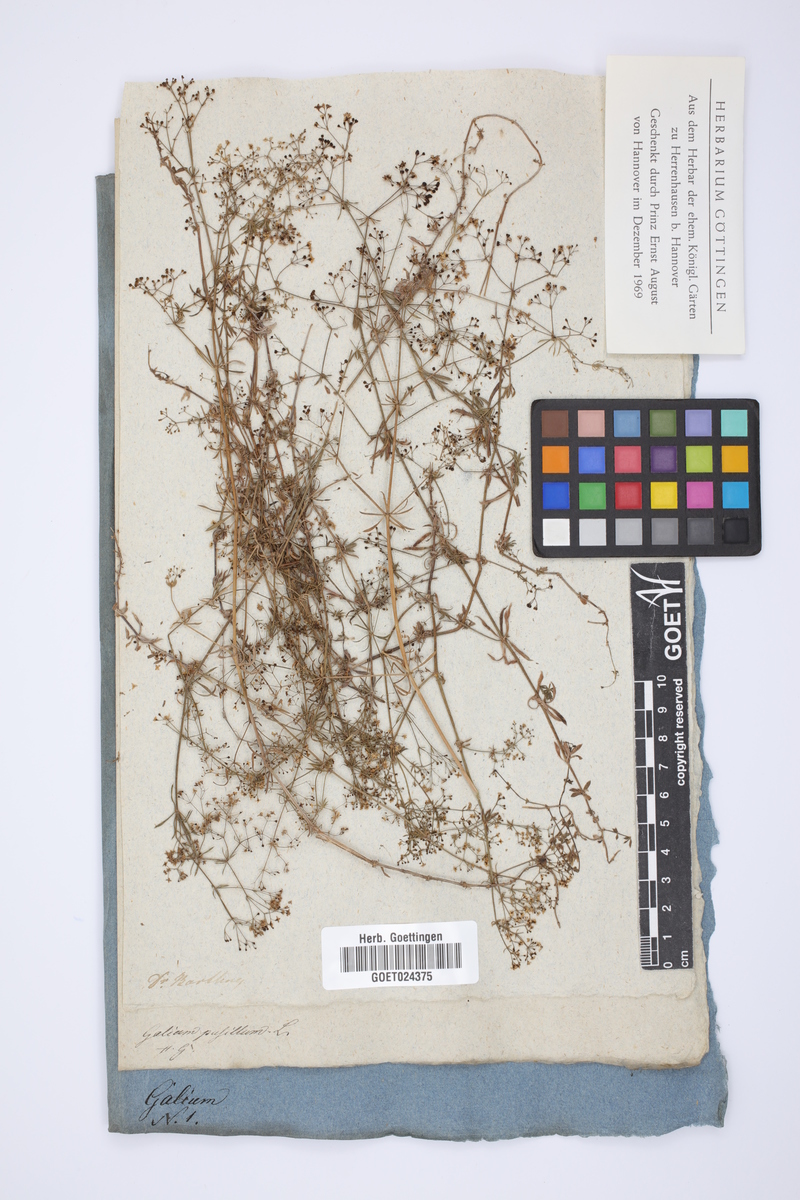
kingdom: Plantae
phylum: Tracheophyta
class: Magnoliopsida
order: Gentianales
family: Rubiaceae
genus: Galium
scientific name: Galium pusillum
